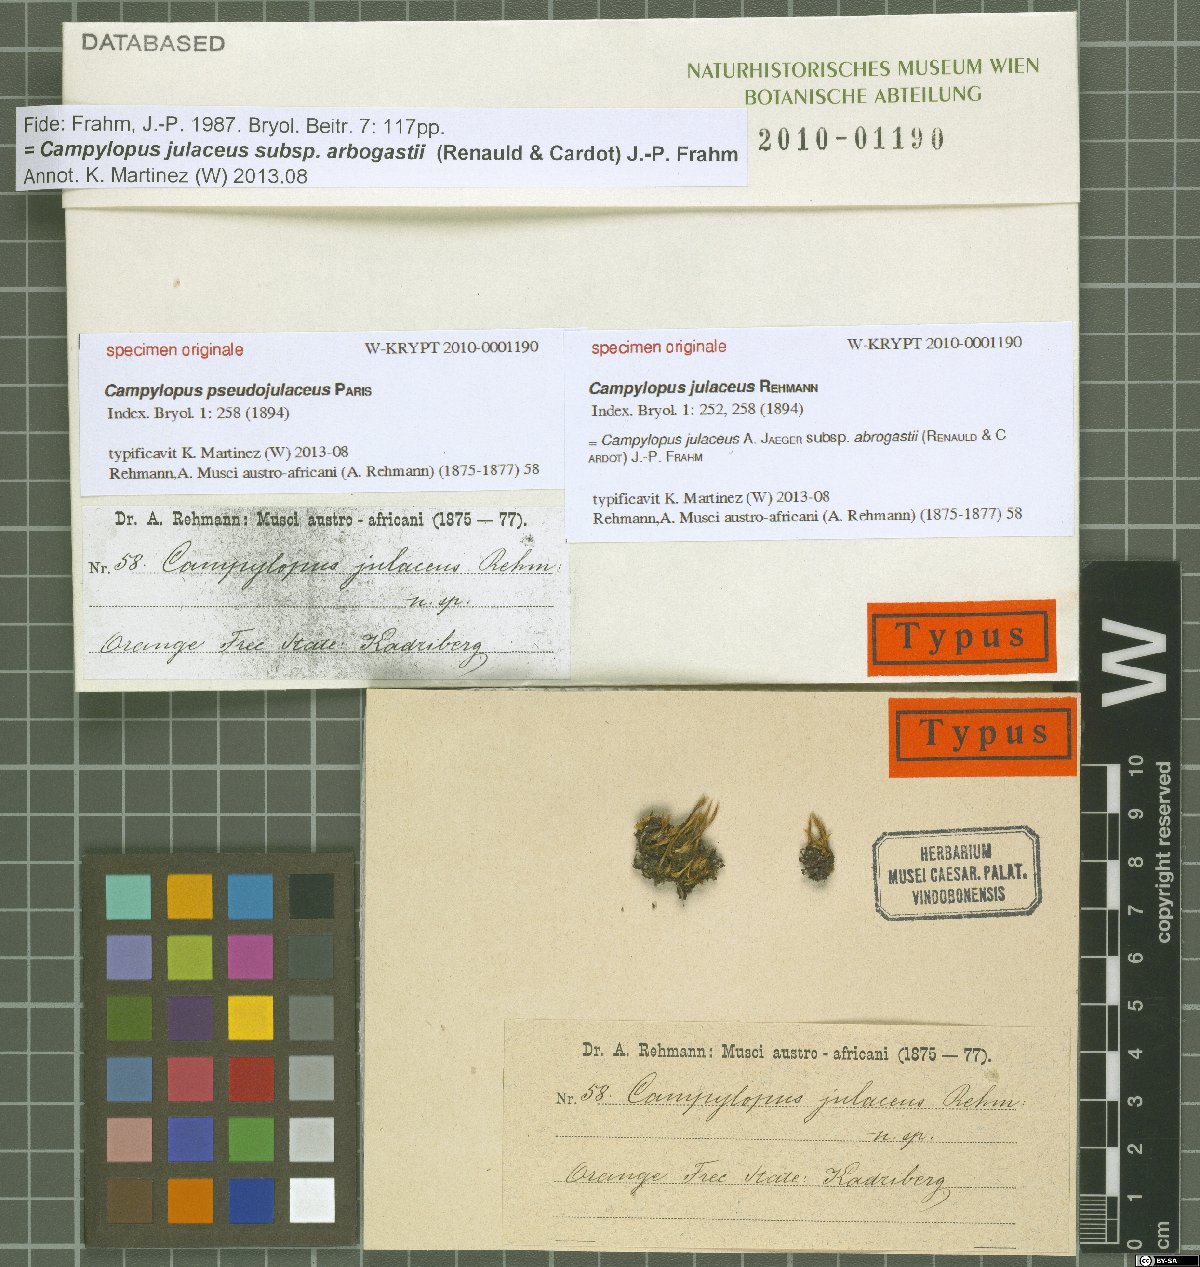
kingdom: Protozoa
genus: Campylopus
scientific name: Campylopus
